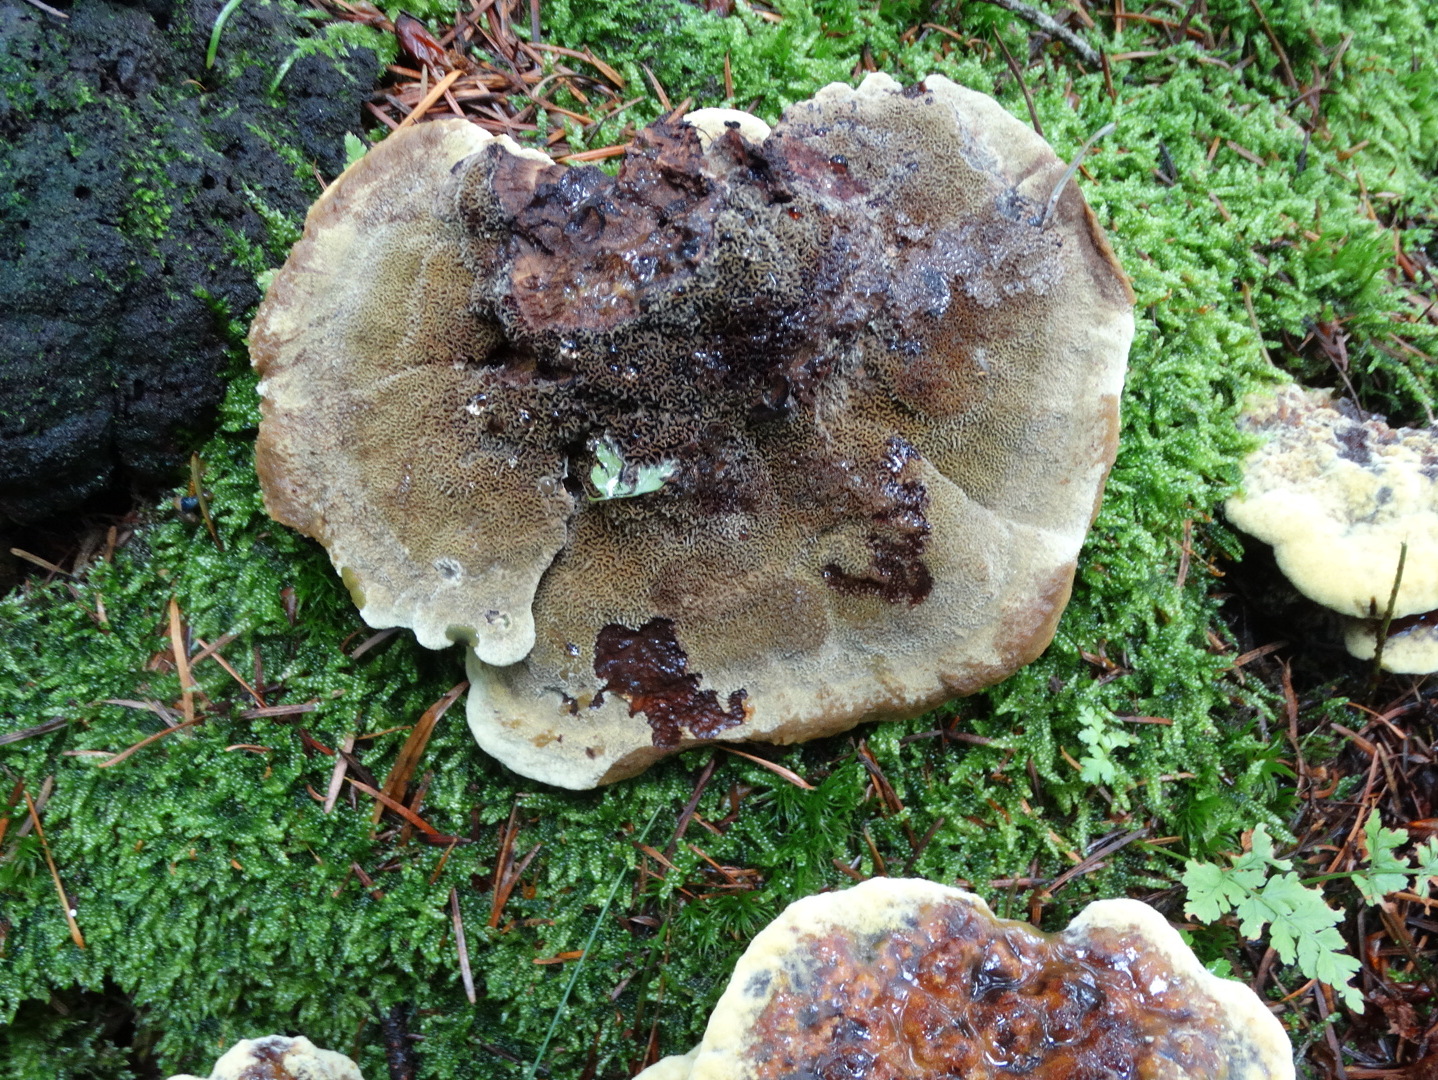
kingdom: Fungi
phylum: Basidiomycota
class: Agaricomycetes
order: Polyporales
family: Laetiporaceae
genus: Phaeolus
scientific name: Phaeolus schweinitzii
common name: brunporesvamp
